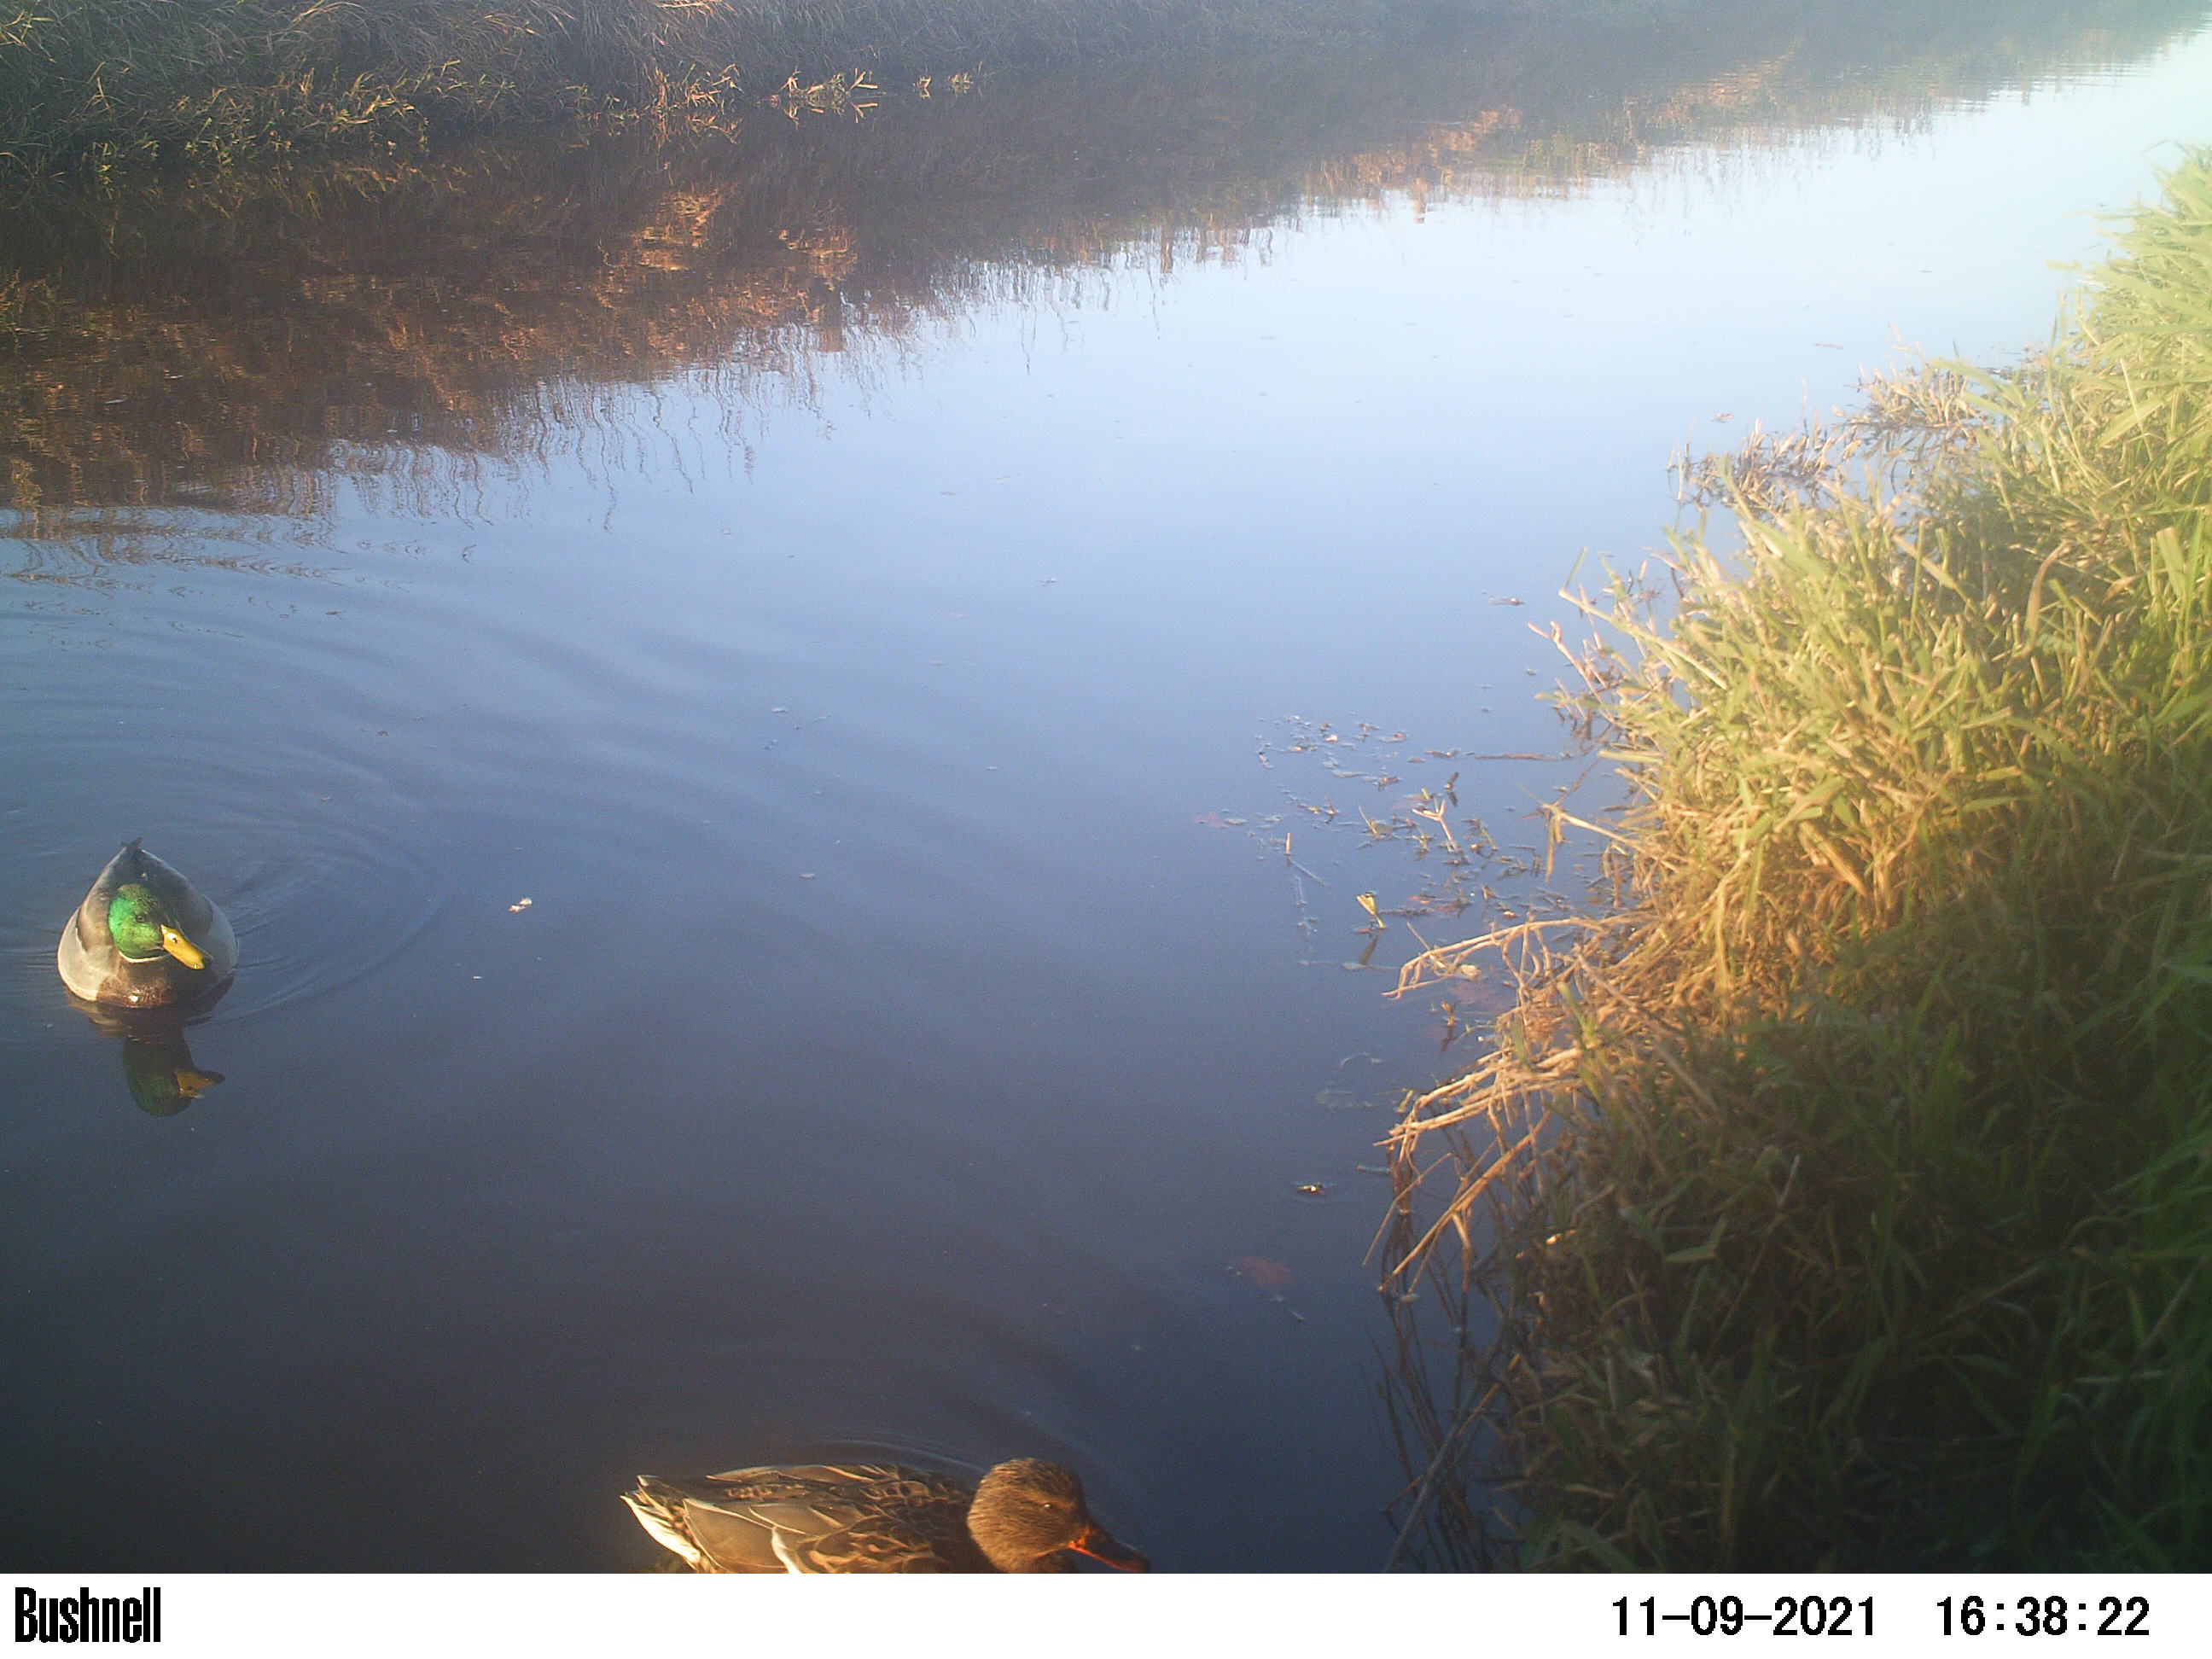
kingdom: Animalia
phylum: Chordata
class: Aves
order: Anseriformes
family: Anatidae
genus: Anas
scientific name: Anas
